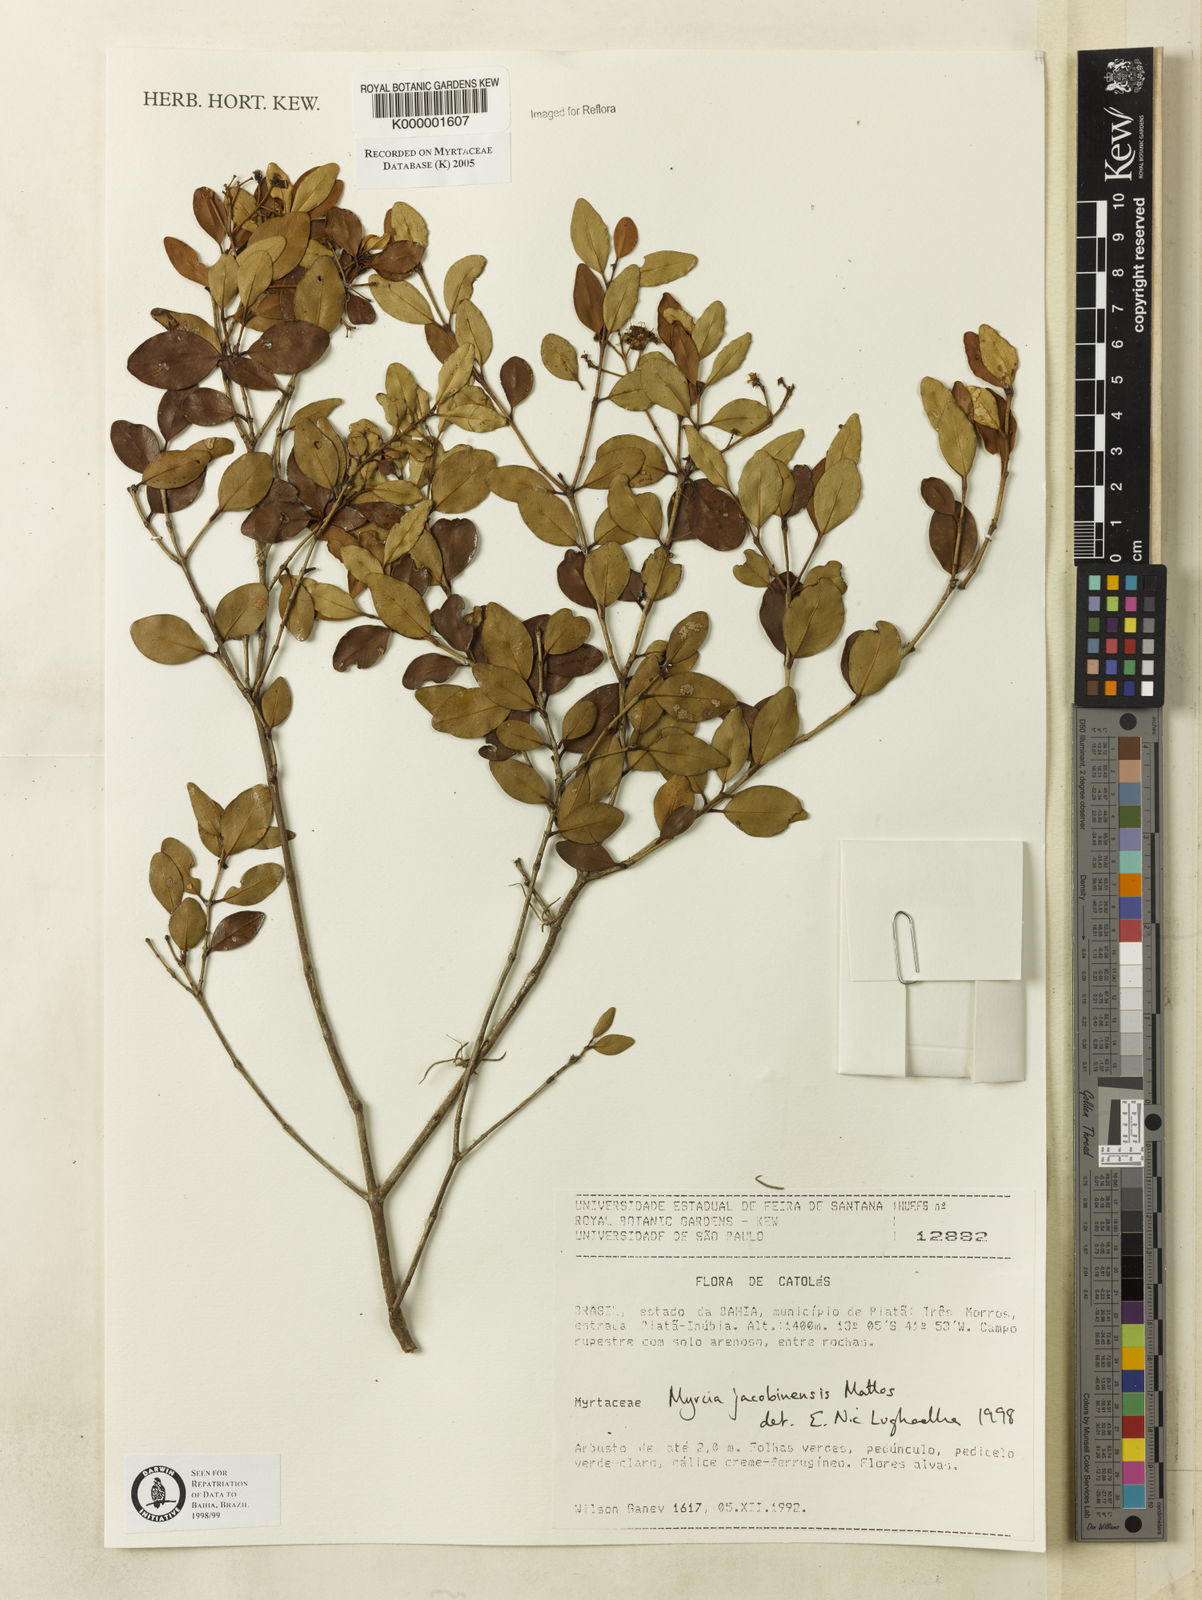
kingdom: Plantae
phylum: Tracheophyta
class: Magnoliopsida
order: Myrtales
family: Myrtaceae
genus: Myrcia
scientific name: Myrcia jacobinensis
